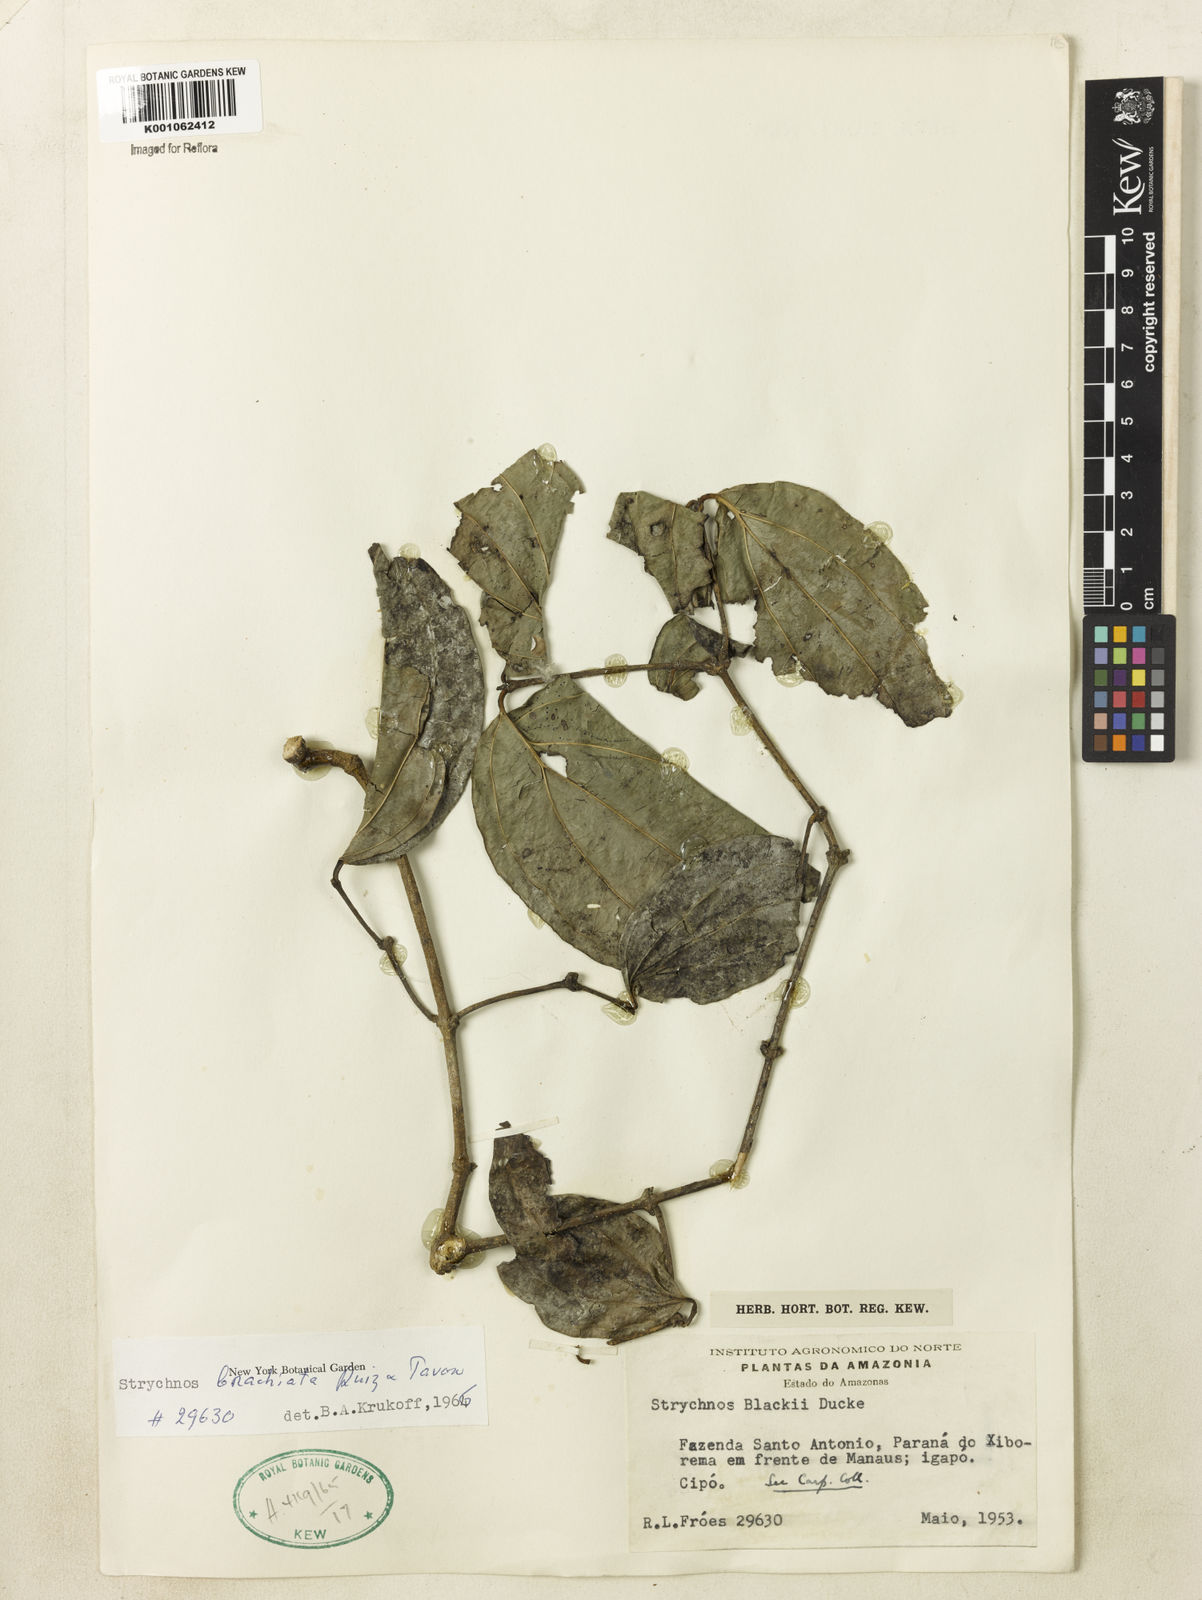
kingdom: Plantae
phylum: Tracheophyta
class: Magnoliopsida
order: Gentianales
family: Loganiaceae
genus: Strychnos
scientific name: Strychnos brachiata
